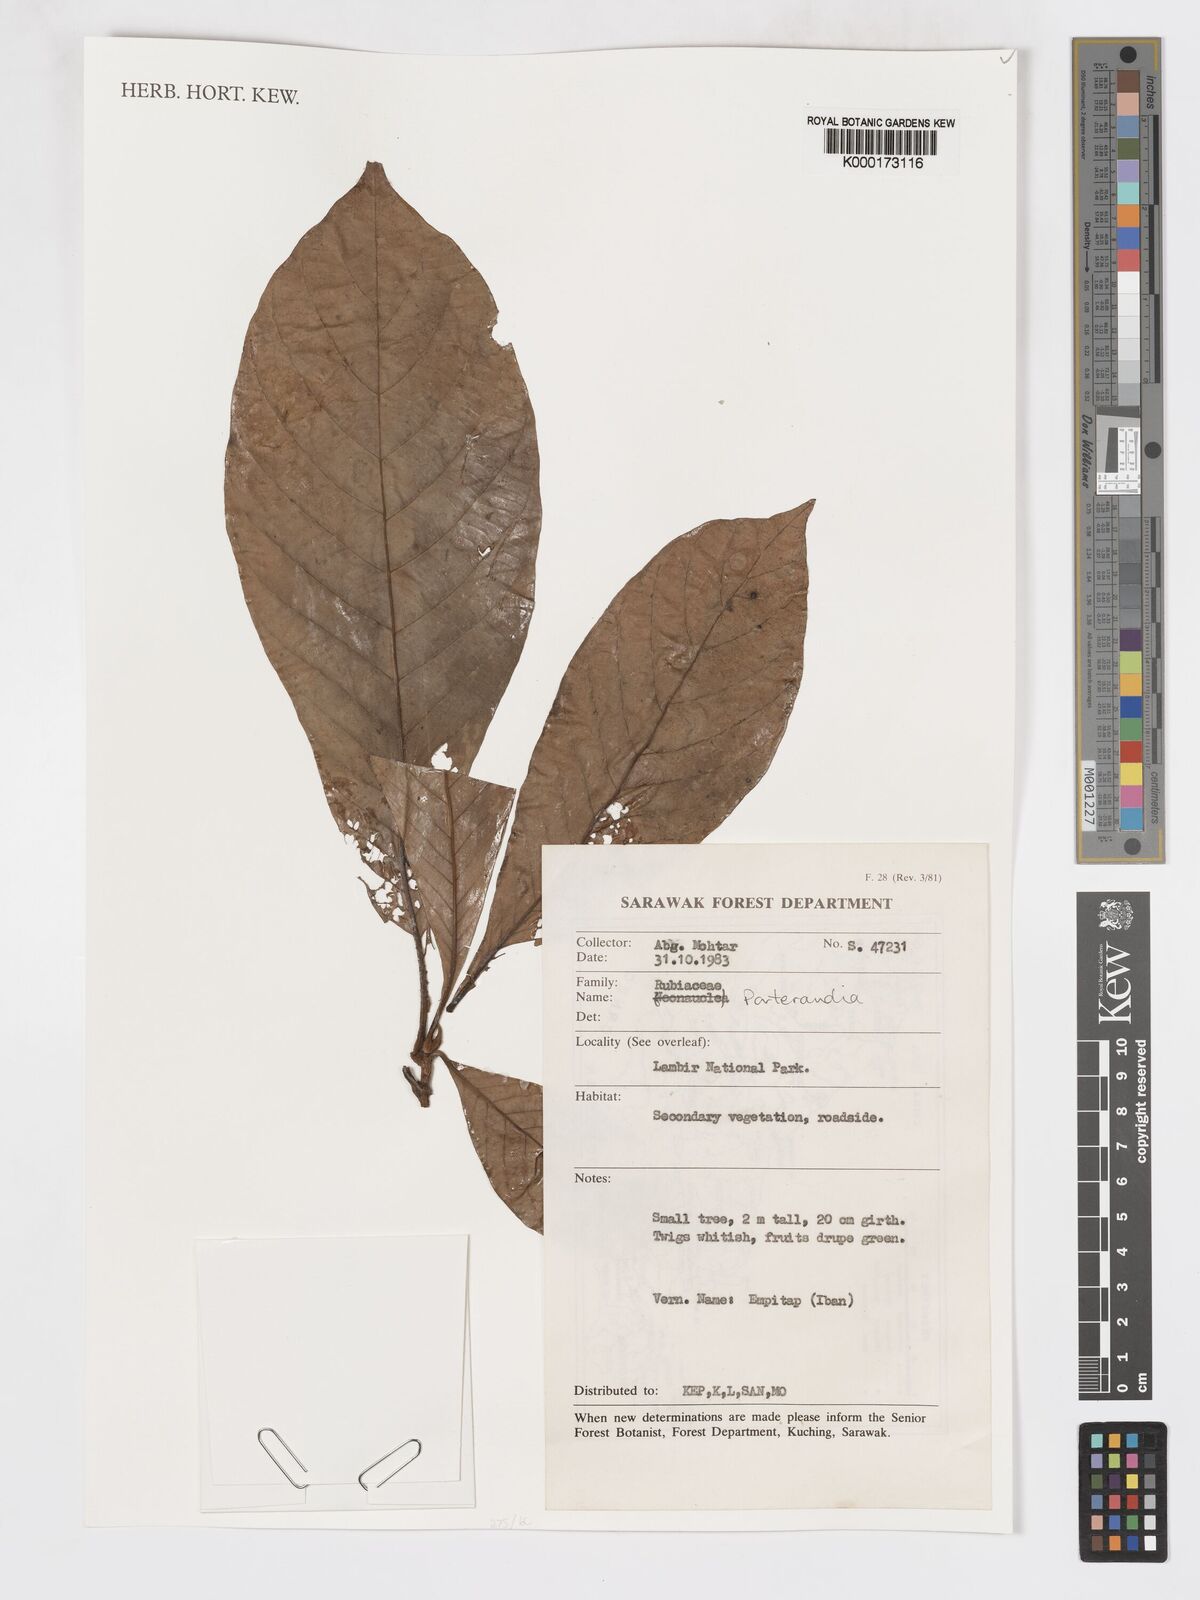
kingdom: Plantae
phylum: Tracheophyta
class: Magnoliopsida
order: Gentianales
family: Rubiaceae
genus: Porterandia
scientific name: Porterandia
